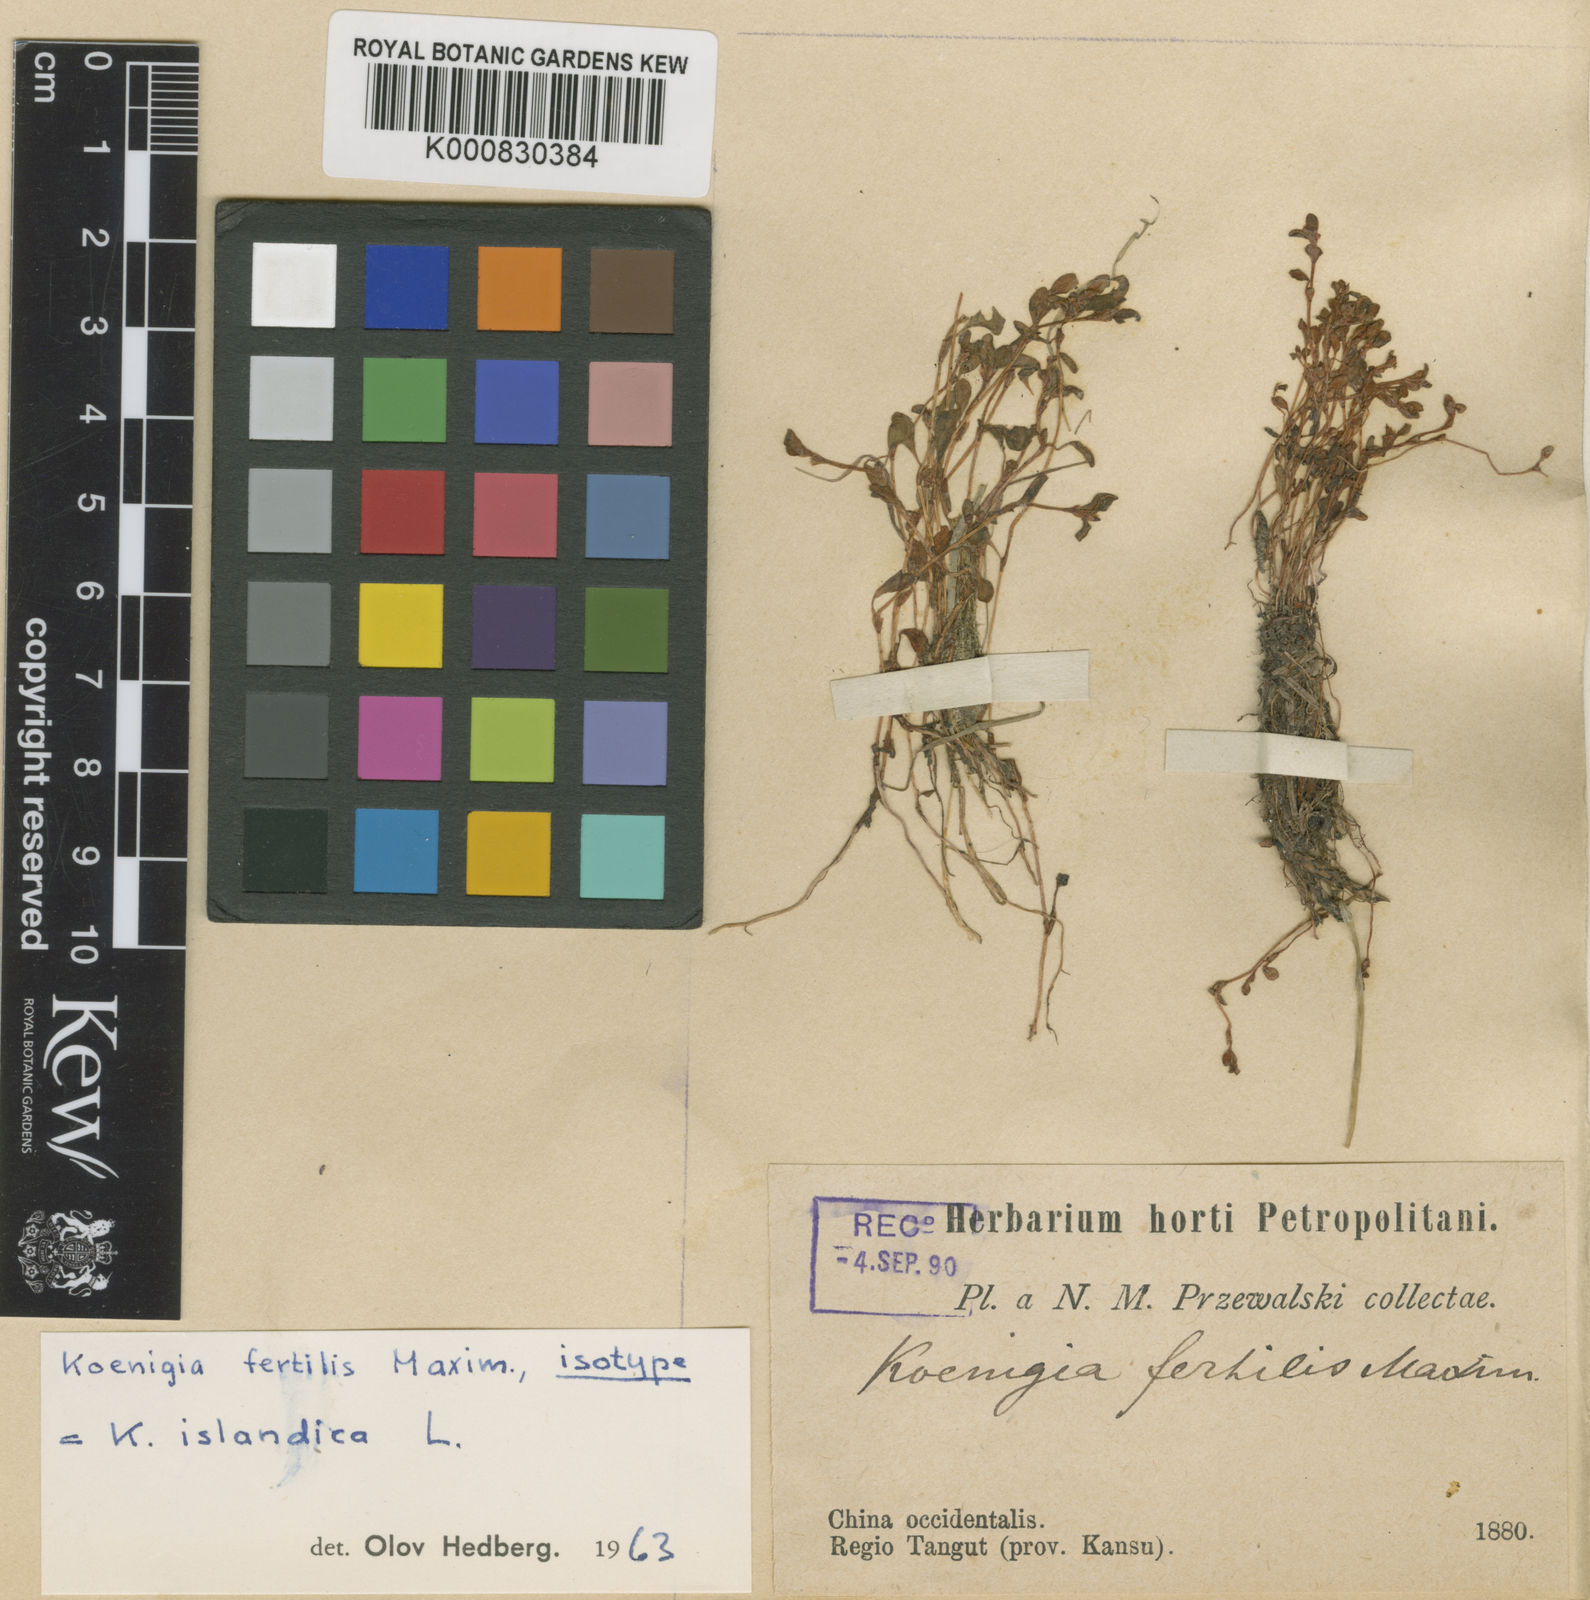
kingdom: Plantae
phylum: Tracheophyta
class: Magnoliopsida
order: Caryophyllales
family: Polygonaceae
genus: Koenigia
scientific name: Koenigia fertilis
